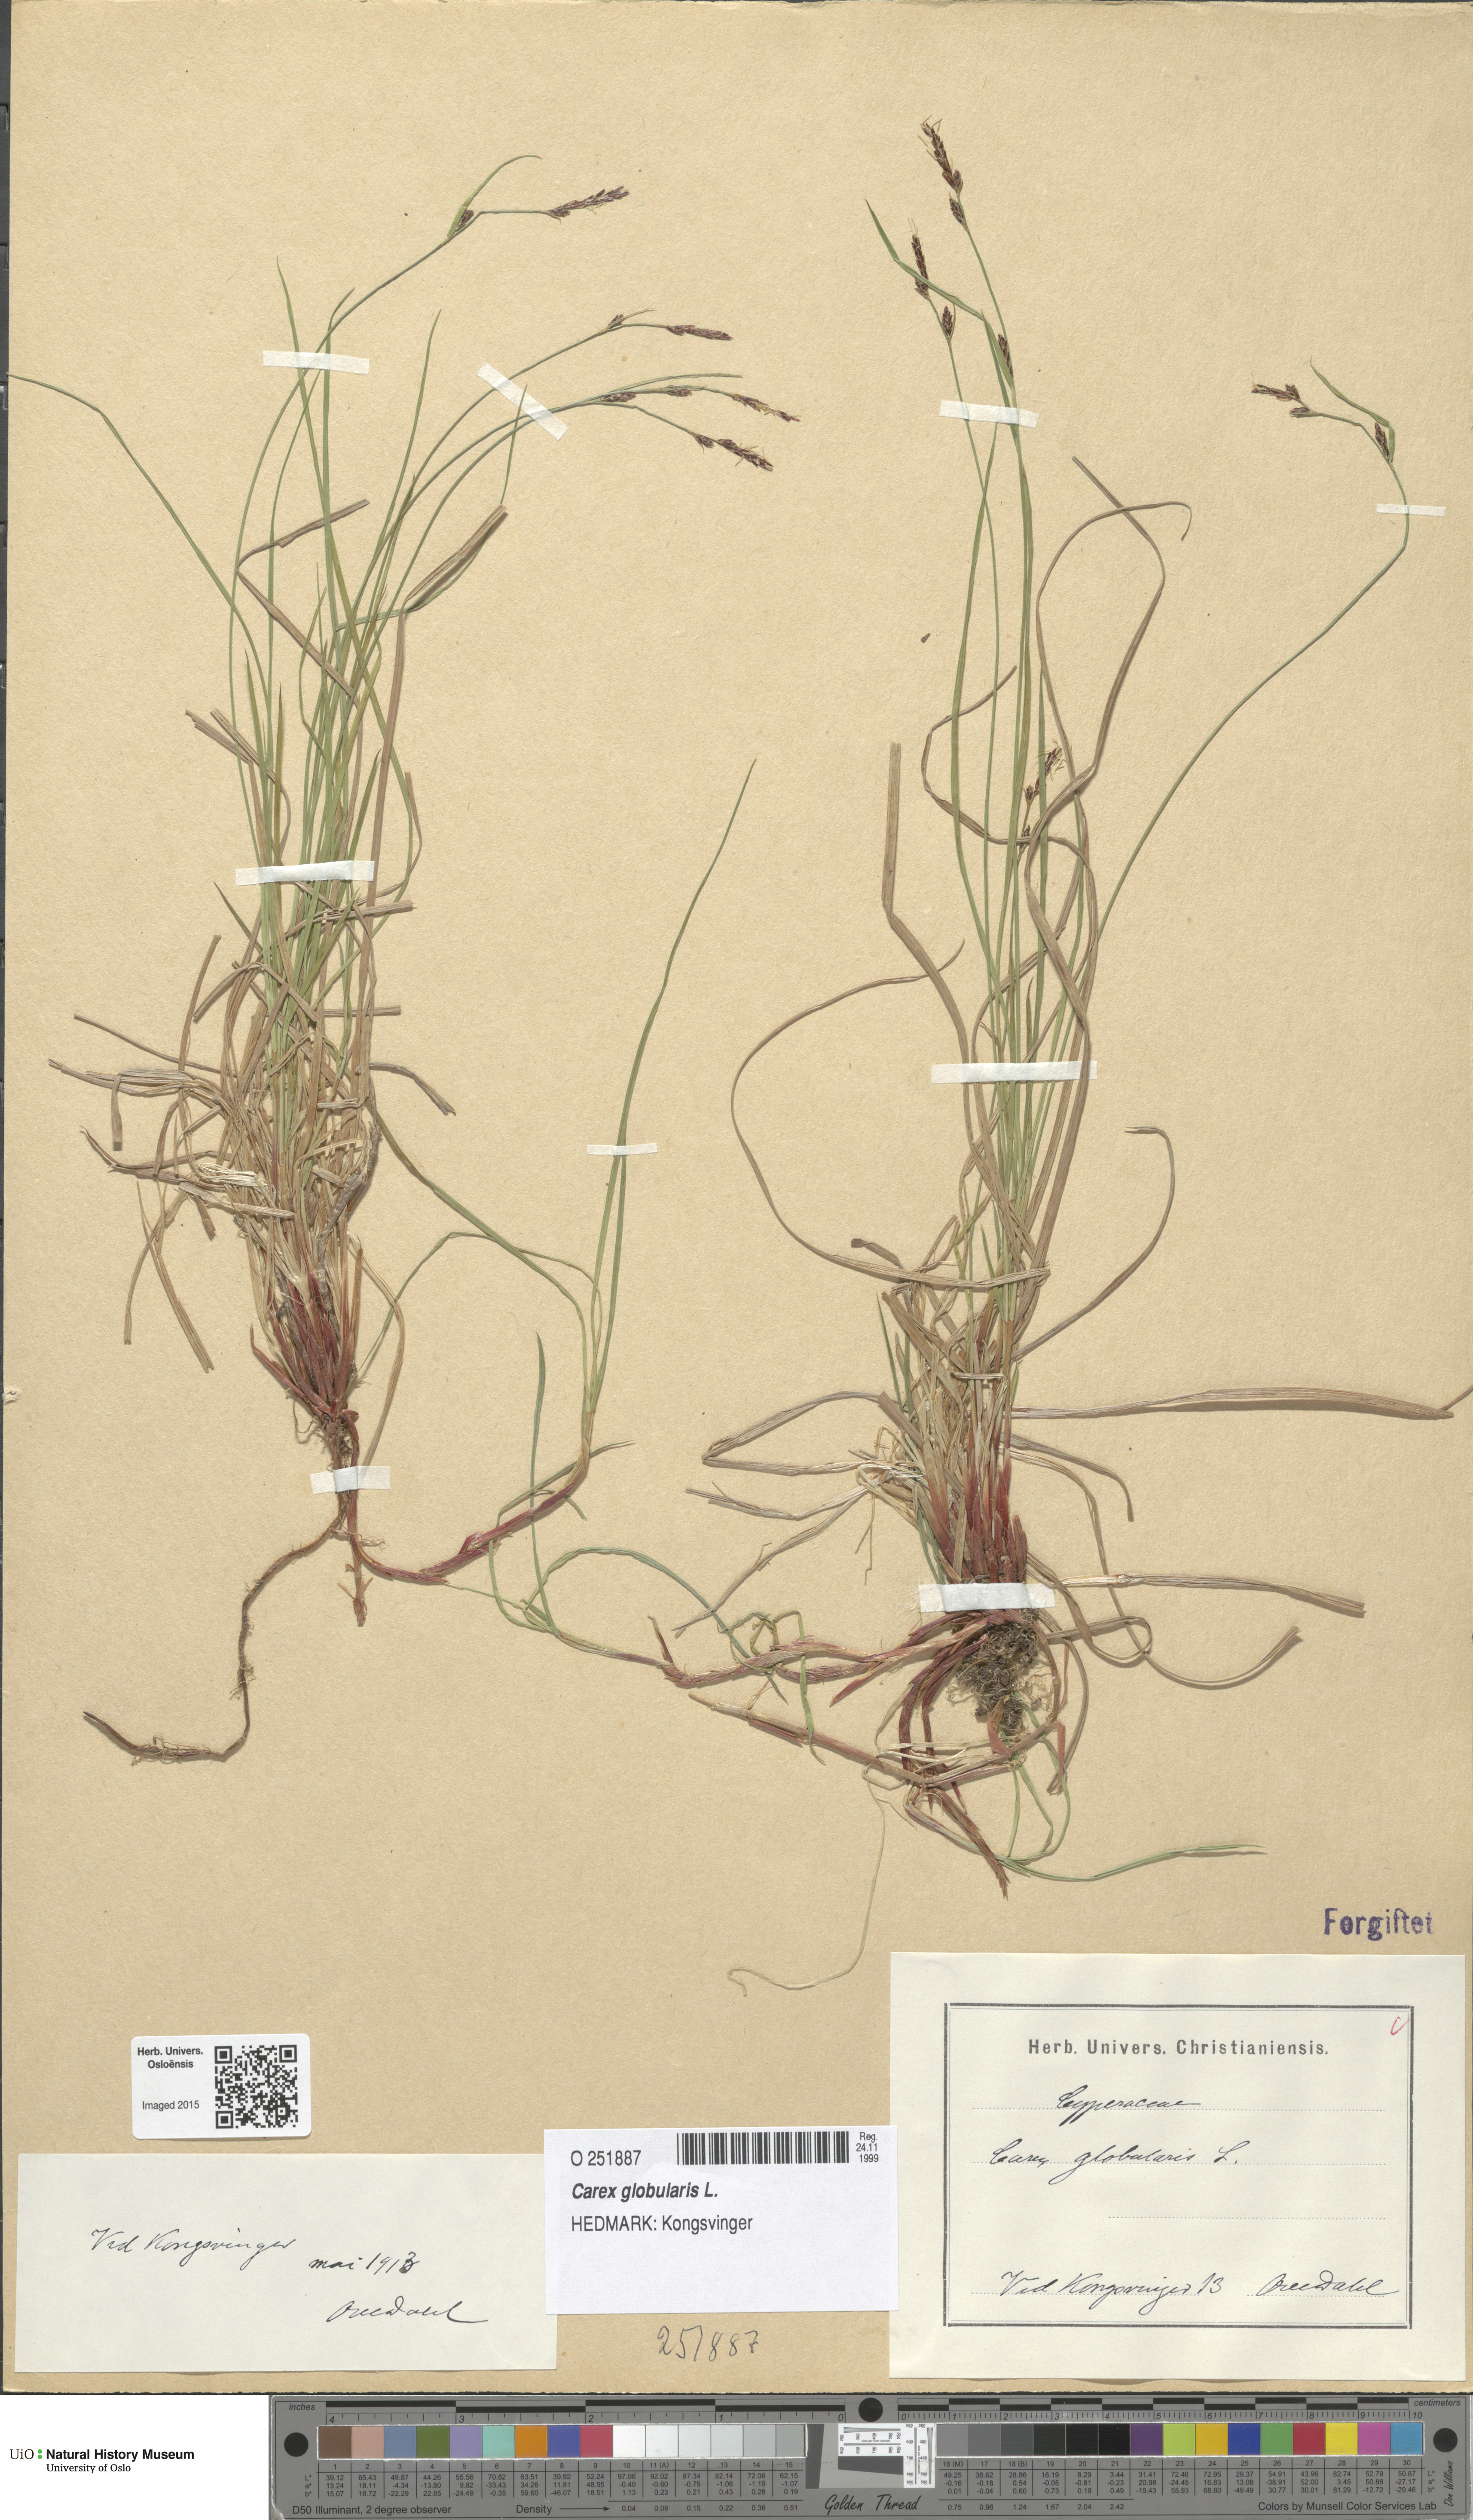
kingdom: Plantae
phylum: Tracheophyta
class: Liliopsida
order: Poales
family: Cyperaceae
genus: Carex
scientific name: Carex globularis
